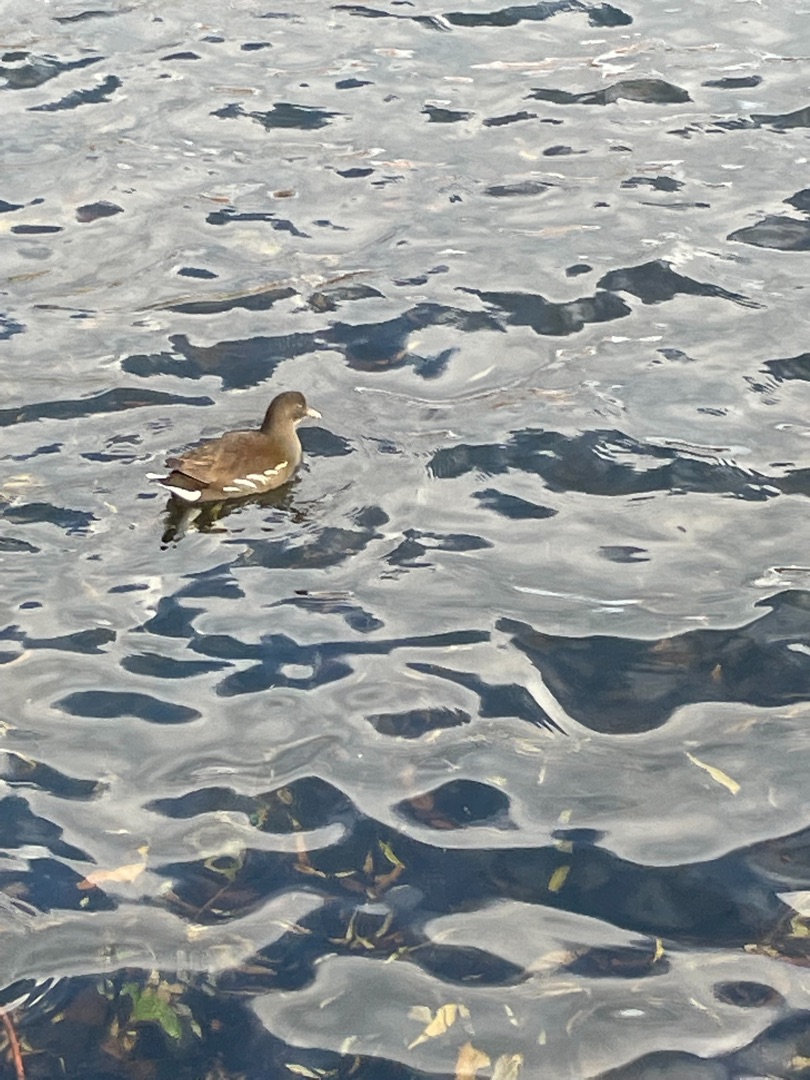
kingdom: Animalia
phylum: Chordata
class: Aves
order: Gruiformes
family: Rallidae
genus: Gallinula
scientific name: Gallinula chloropus
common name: Grønbenet rørhøne
